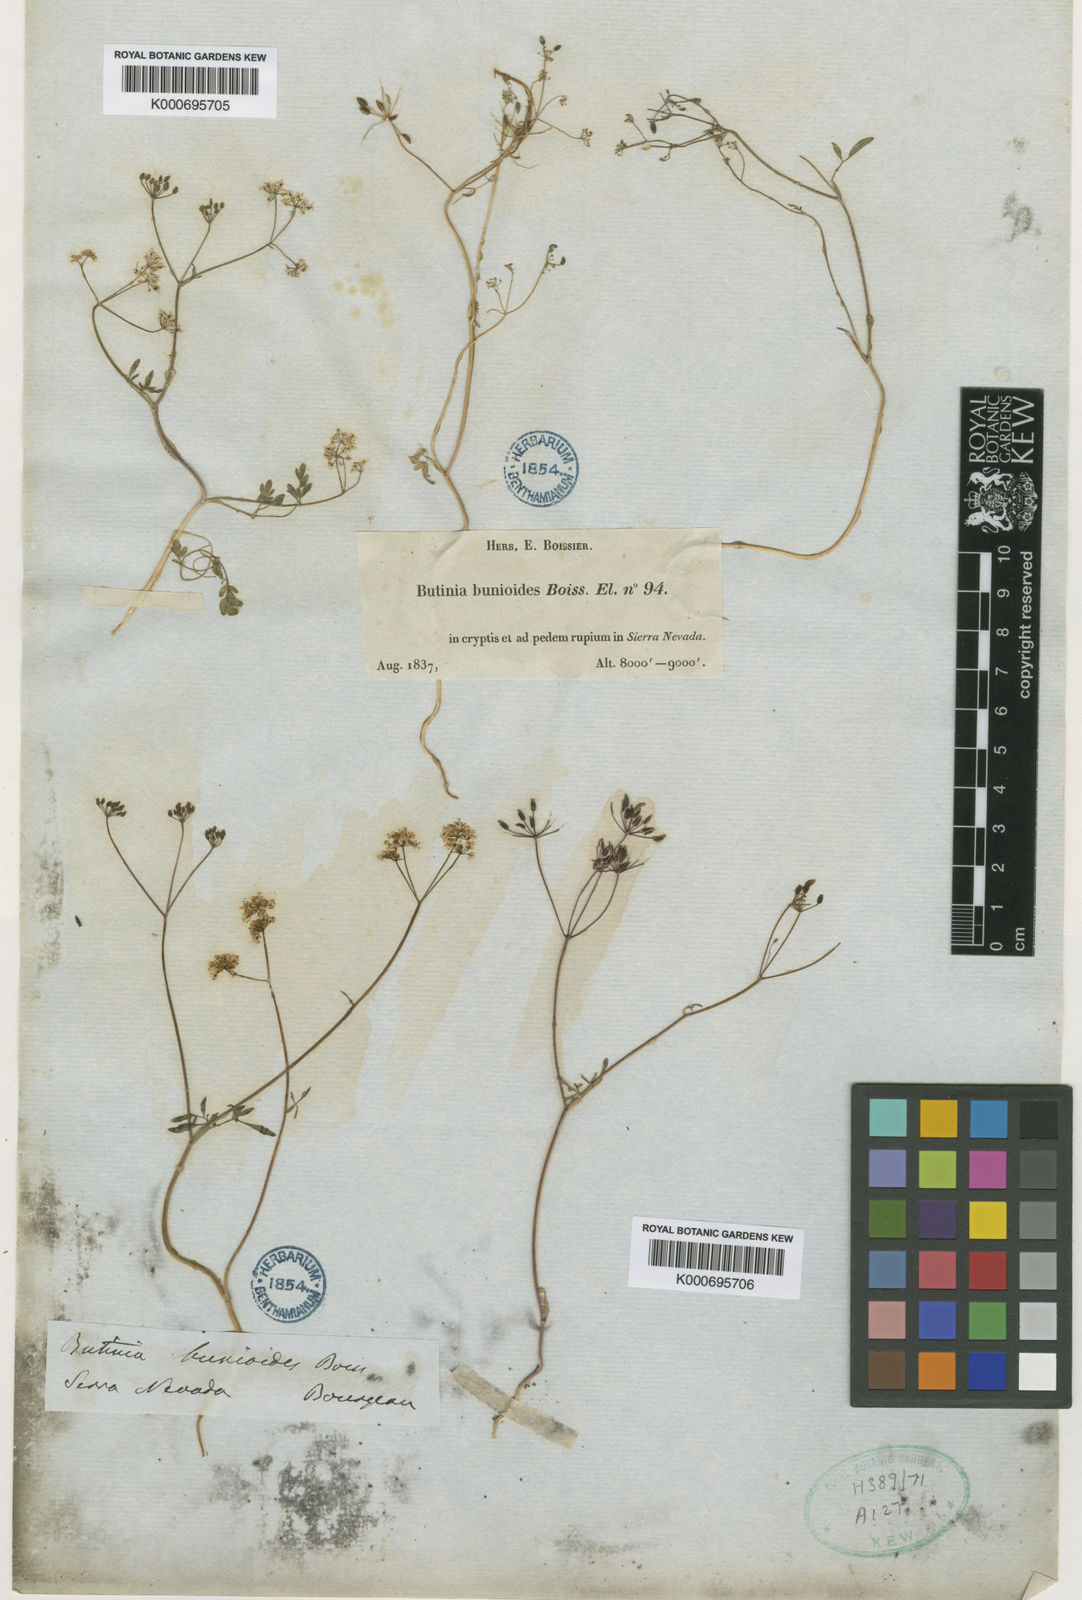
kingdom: Plantae
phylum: Tracheophyta
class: Magnoliopsida
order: Apiales
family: Apiaceae
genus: Conopodium
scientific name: Conopodium bunioides
